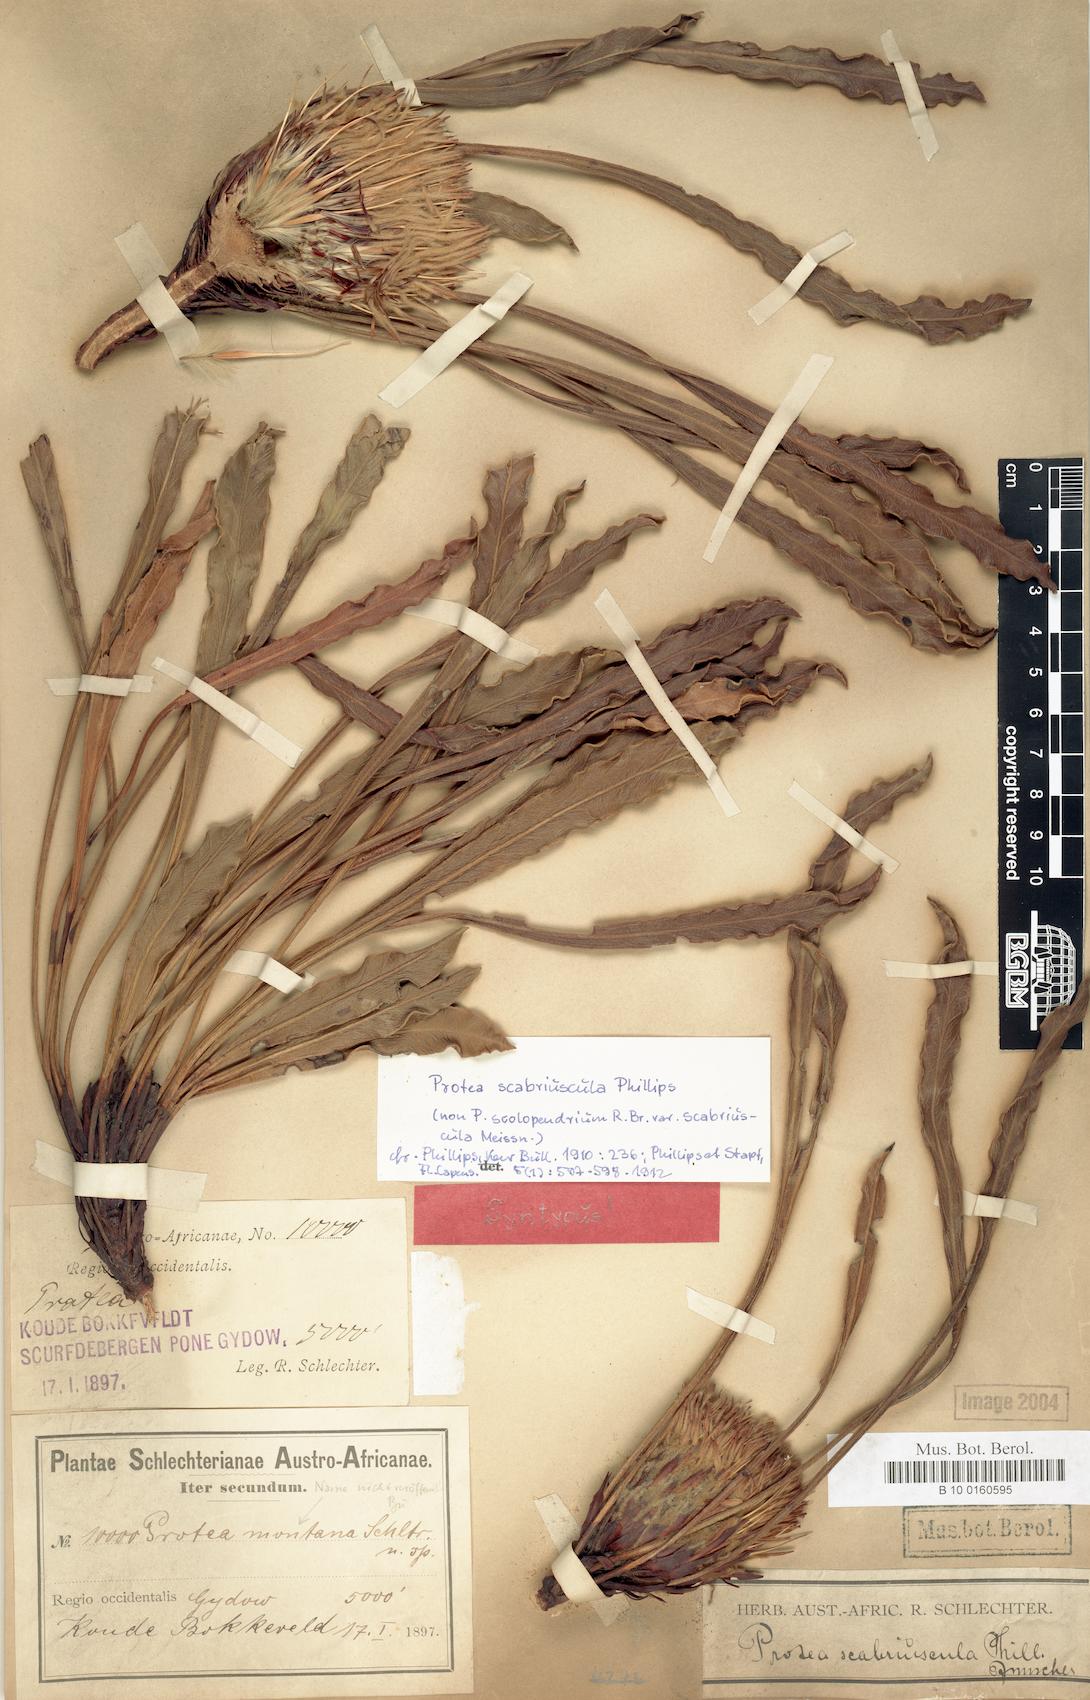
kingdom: Plantae
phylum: Tracheophyta
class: Magnoliopsida
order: Proteales
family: Proteaceae
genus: Protea
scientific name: Protea scabriuscula
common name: Hoary sugarbush
